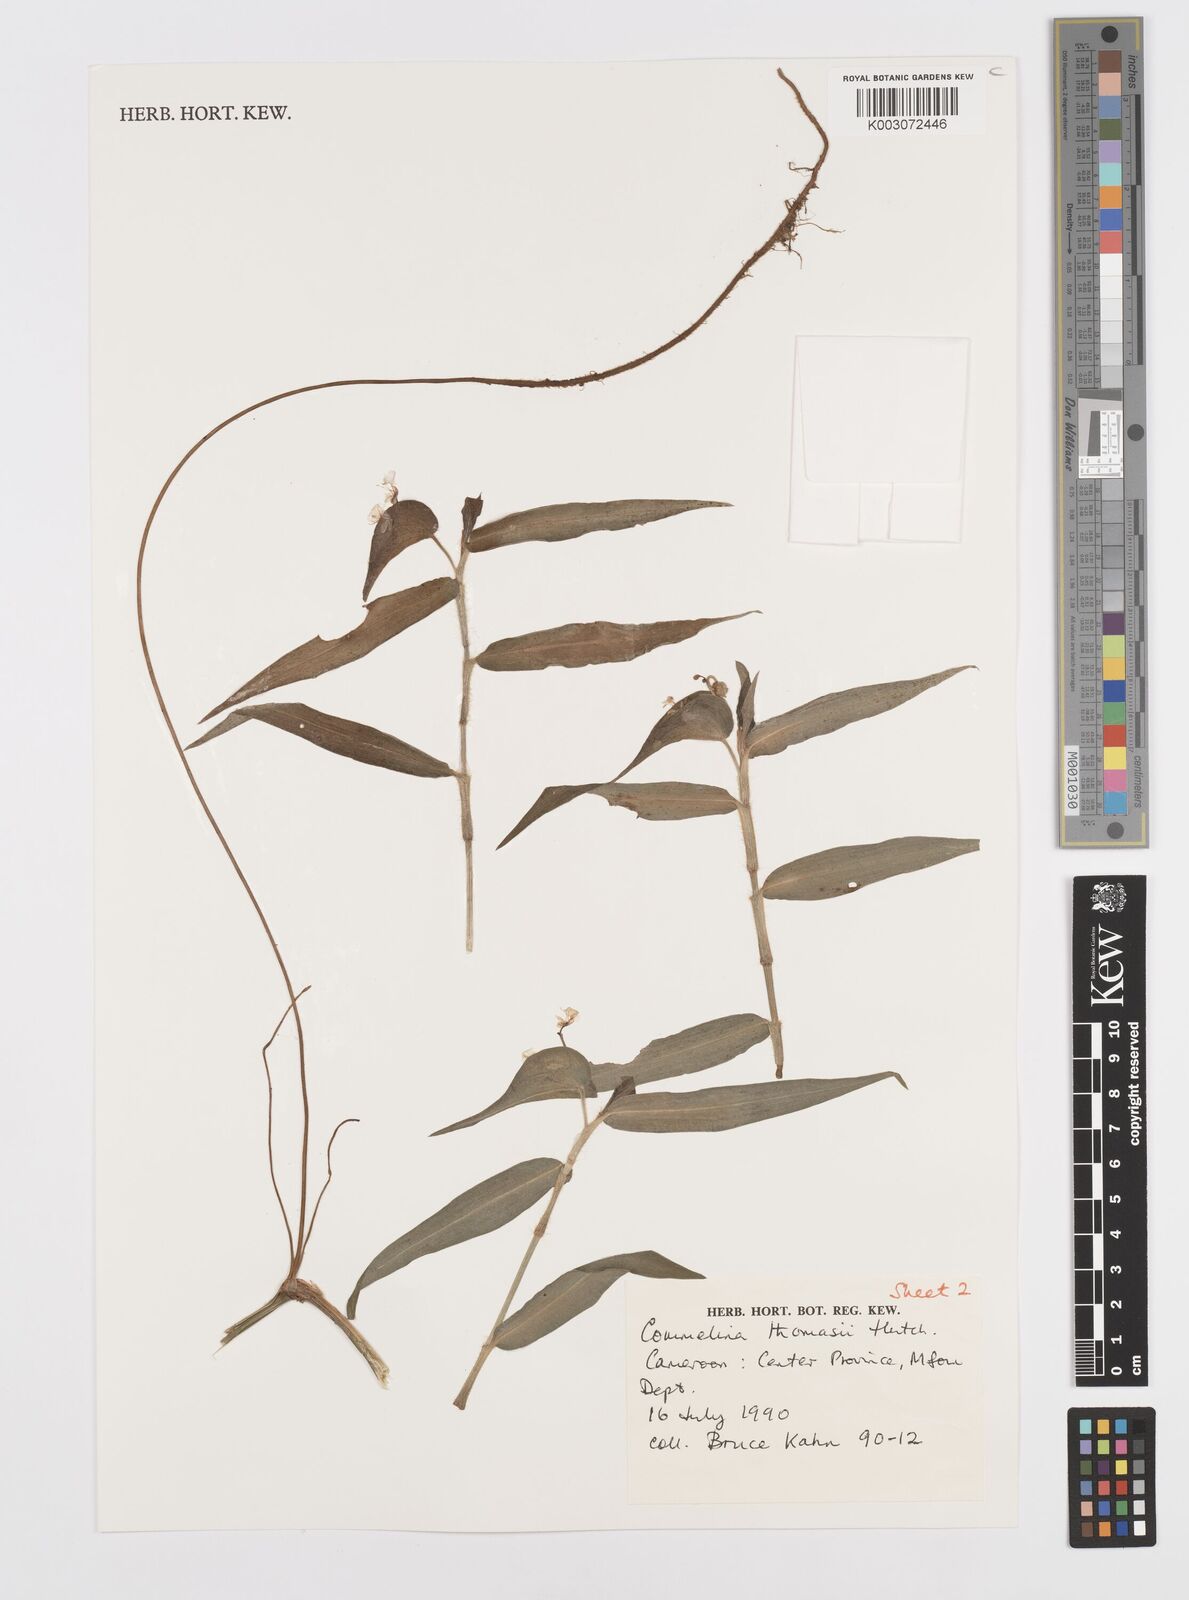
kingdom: Plantae
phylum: Tracheophyta
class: Liliopsida
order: Commelinales
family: Commelinaceae
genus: Commelina
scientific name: Commelina acutispatha
